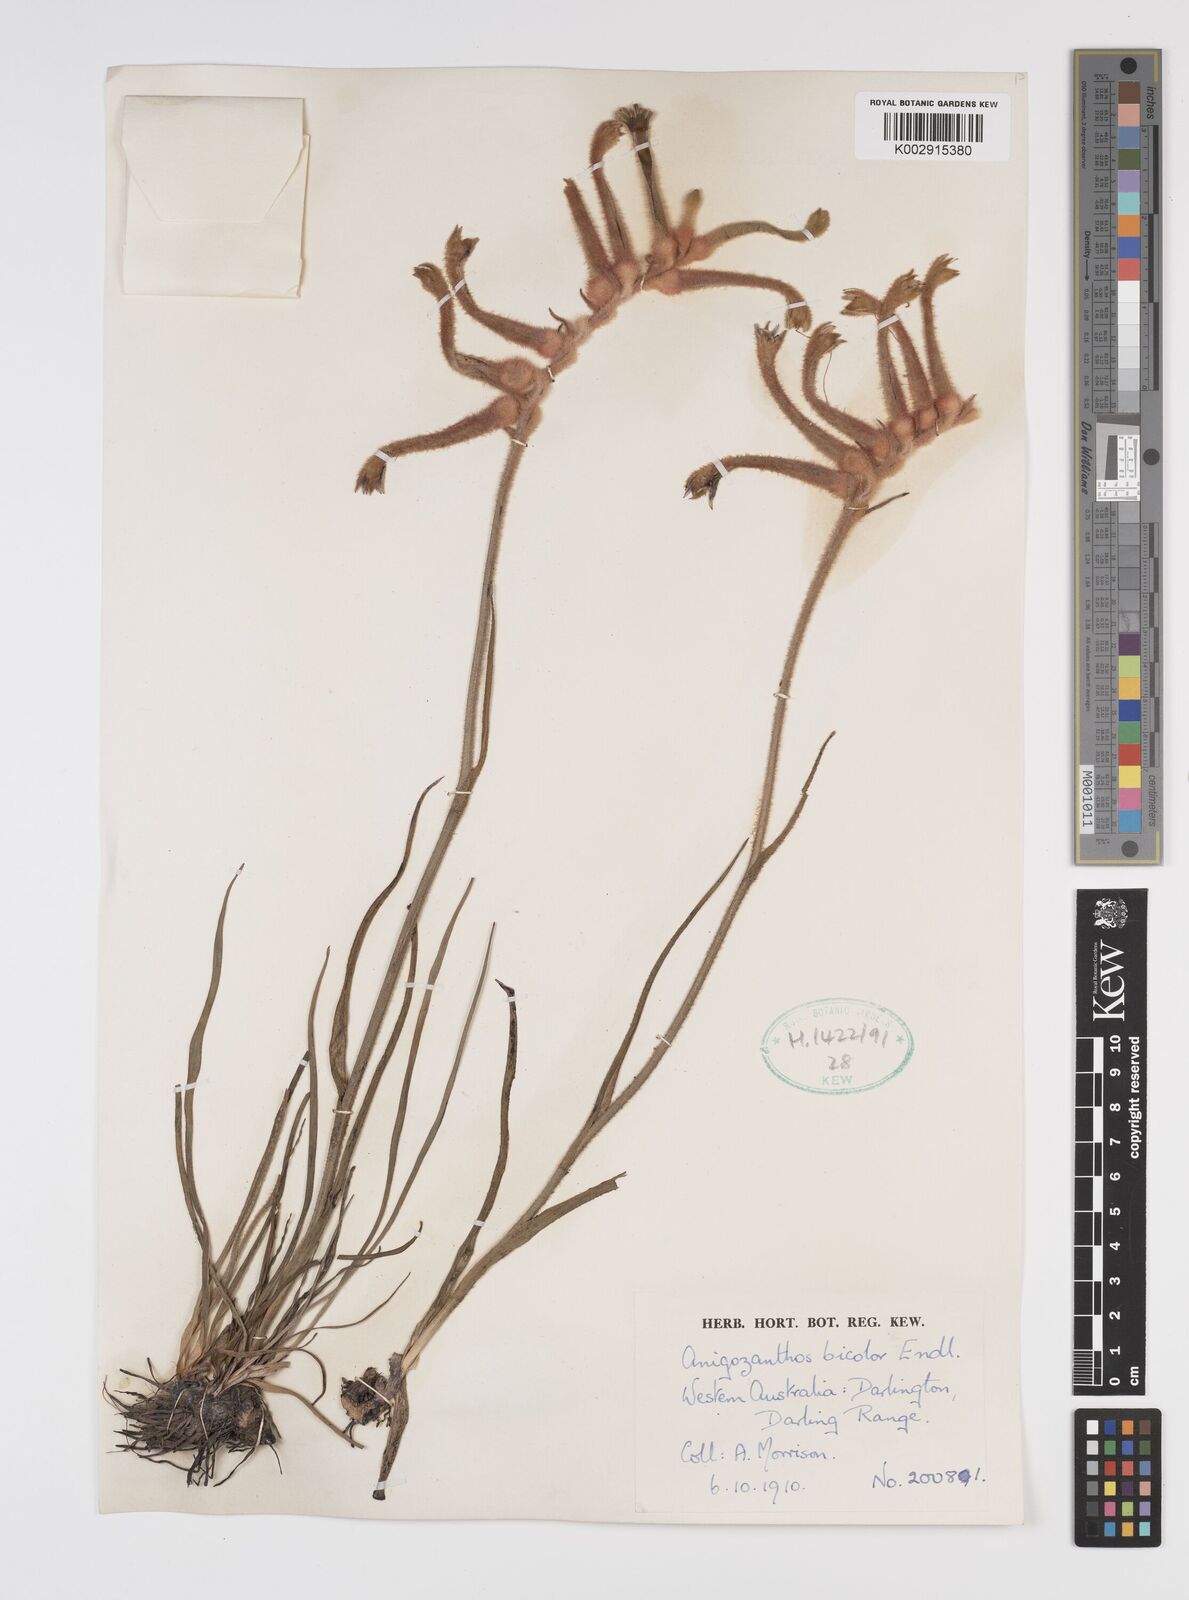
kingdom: Plantae
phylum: Tracheophyta
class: Liliopsida
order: Commelinales
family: Haemodoraceae
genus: Anigozanthos
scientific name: Anigozanthos bicolor
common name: Little kangaroo-paw
